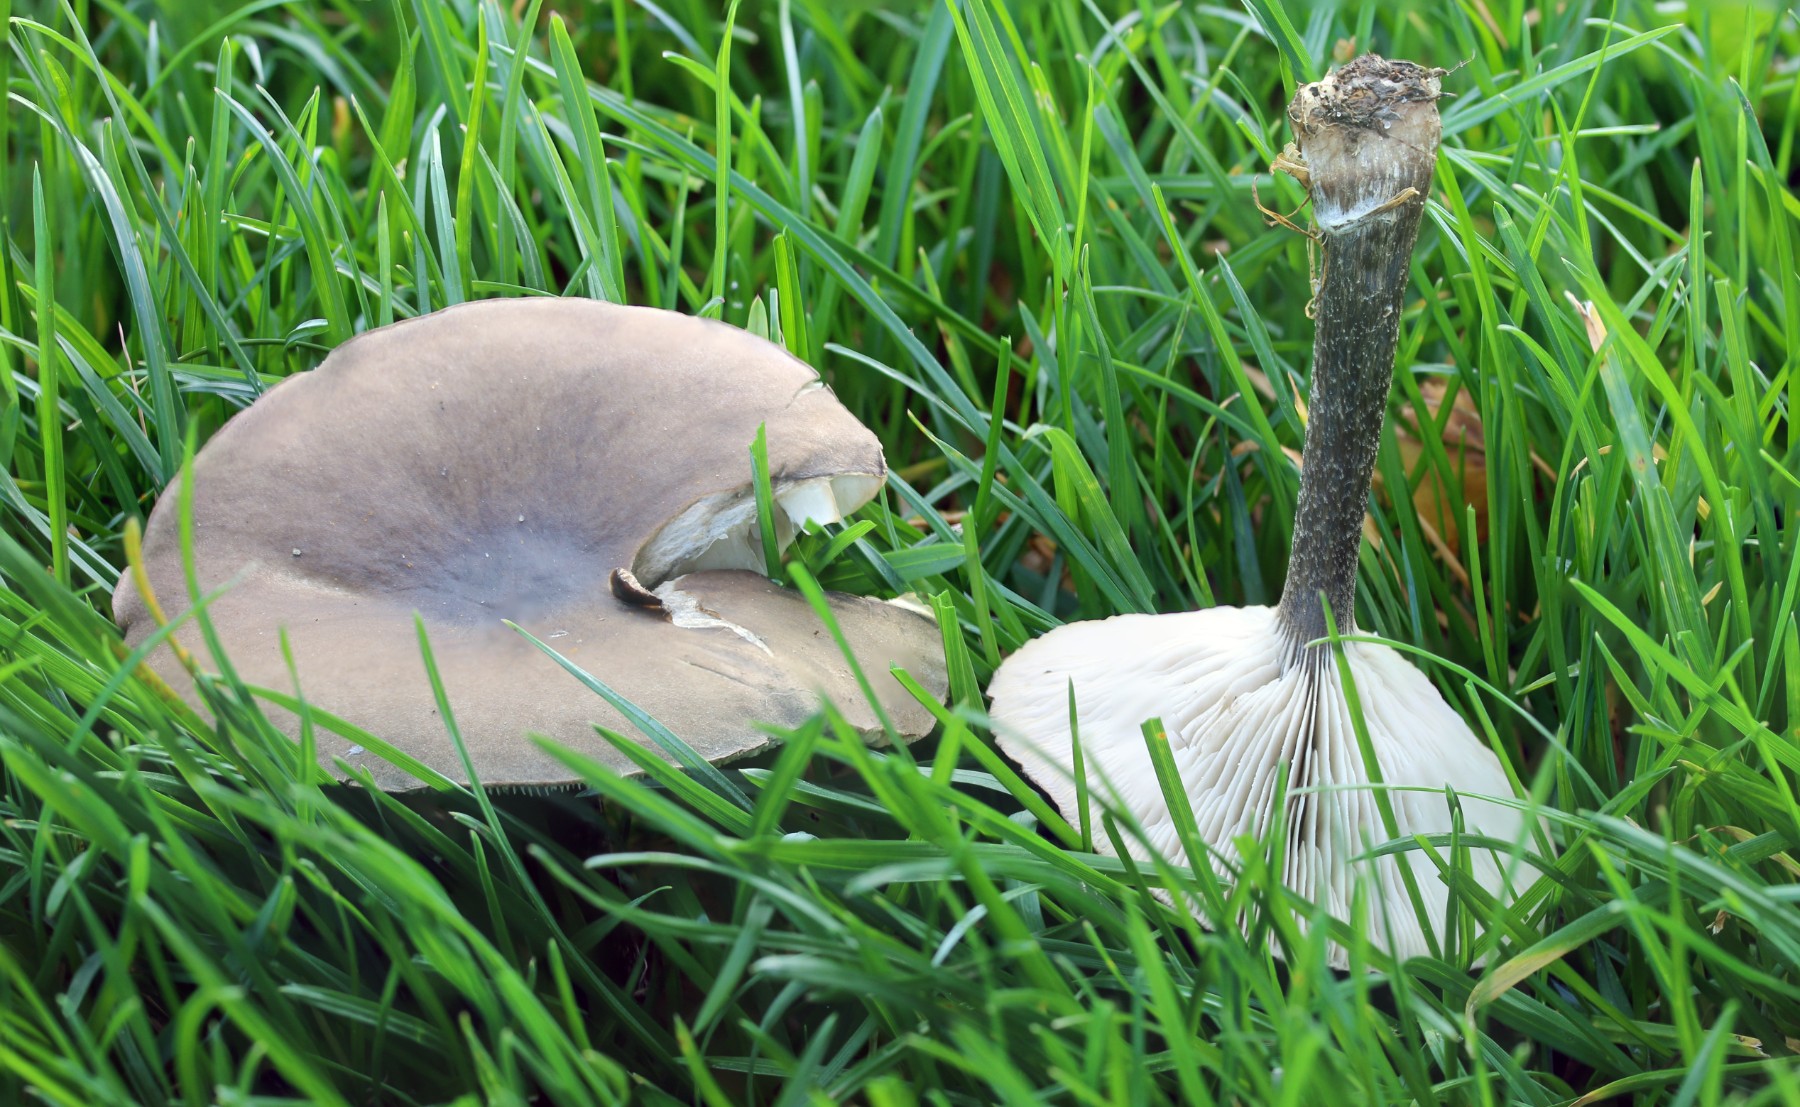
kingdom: Fungi
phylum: Basidiomycota
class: Agaricomycetes
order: Agaricales
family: Tricholomataceae
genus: Melanoleuca
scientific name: Melanoleuca
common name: munkehat
